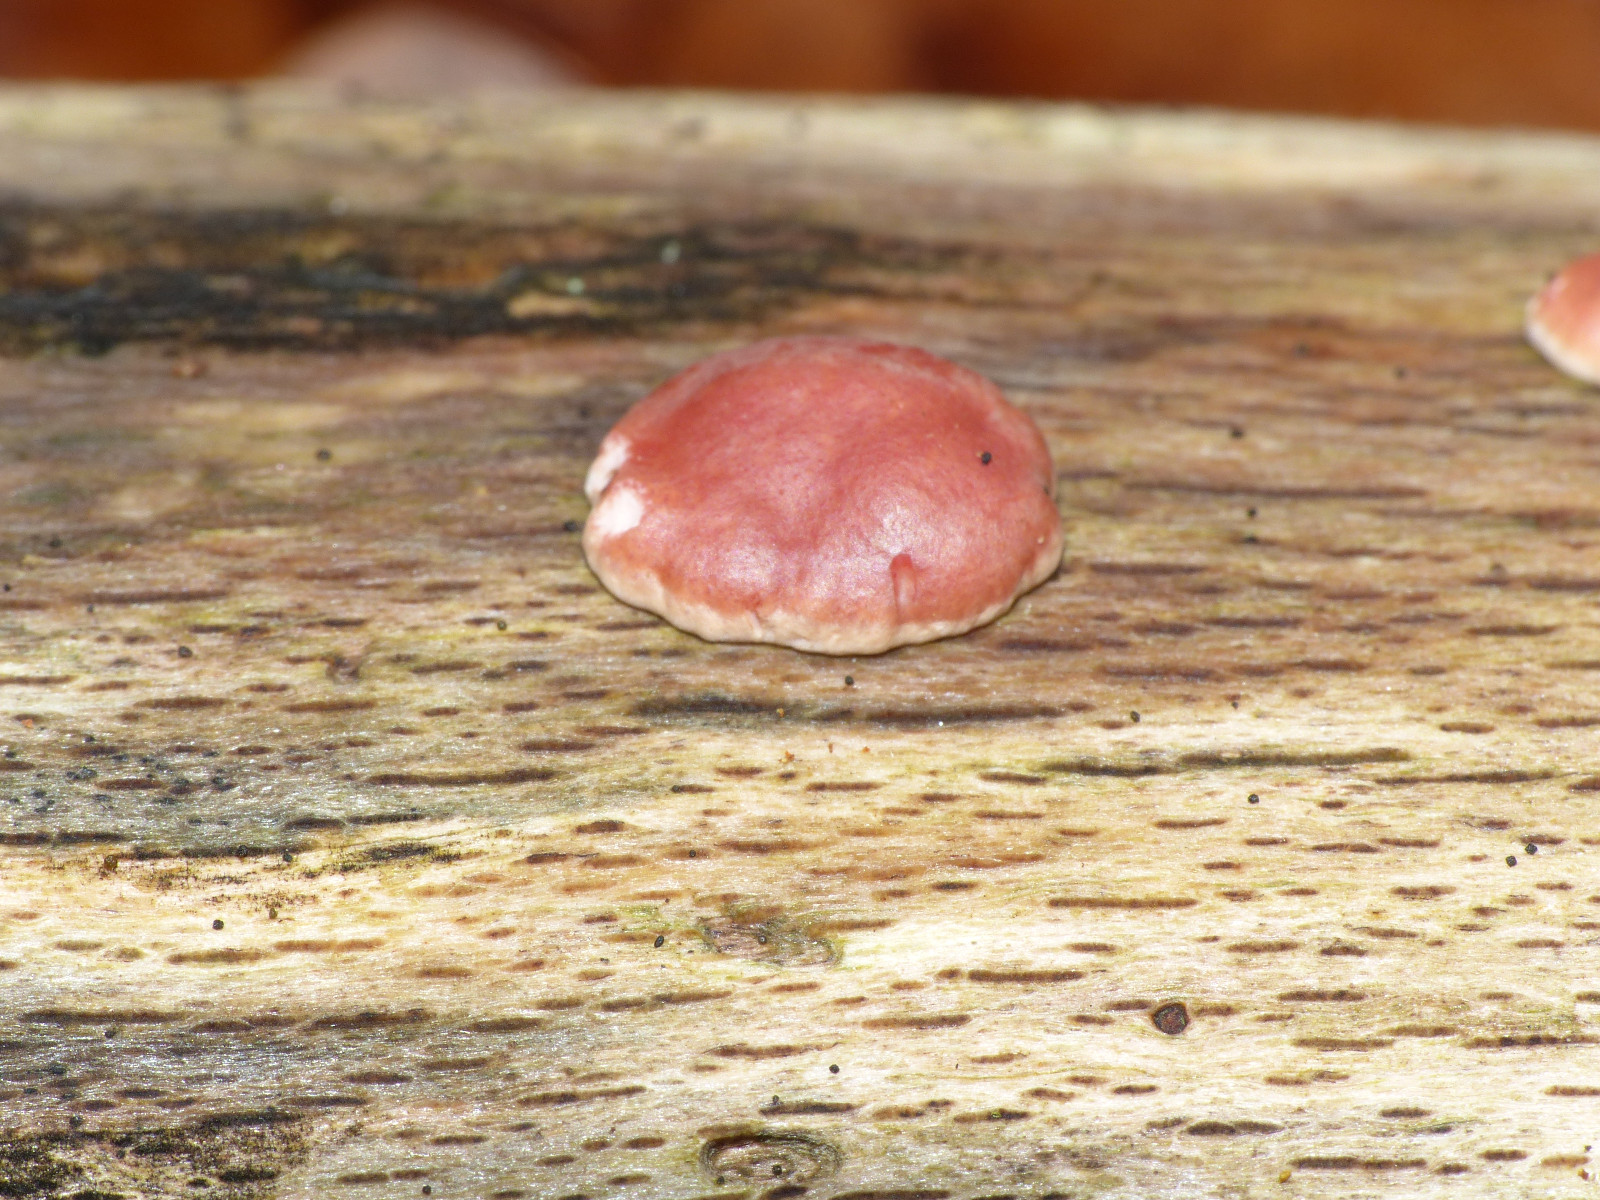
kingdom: Fungi
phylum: Ascomycota
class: Sordariomycetes
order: Hypocreales
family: Hypocreaceae
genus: Trichoderma
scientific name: Trichoderma europaeum
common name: rosabrun kødkerne
